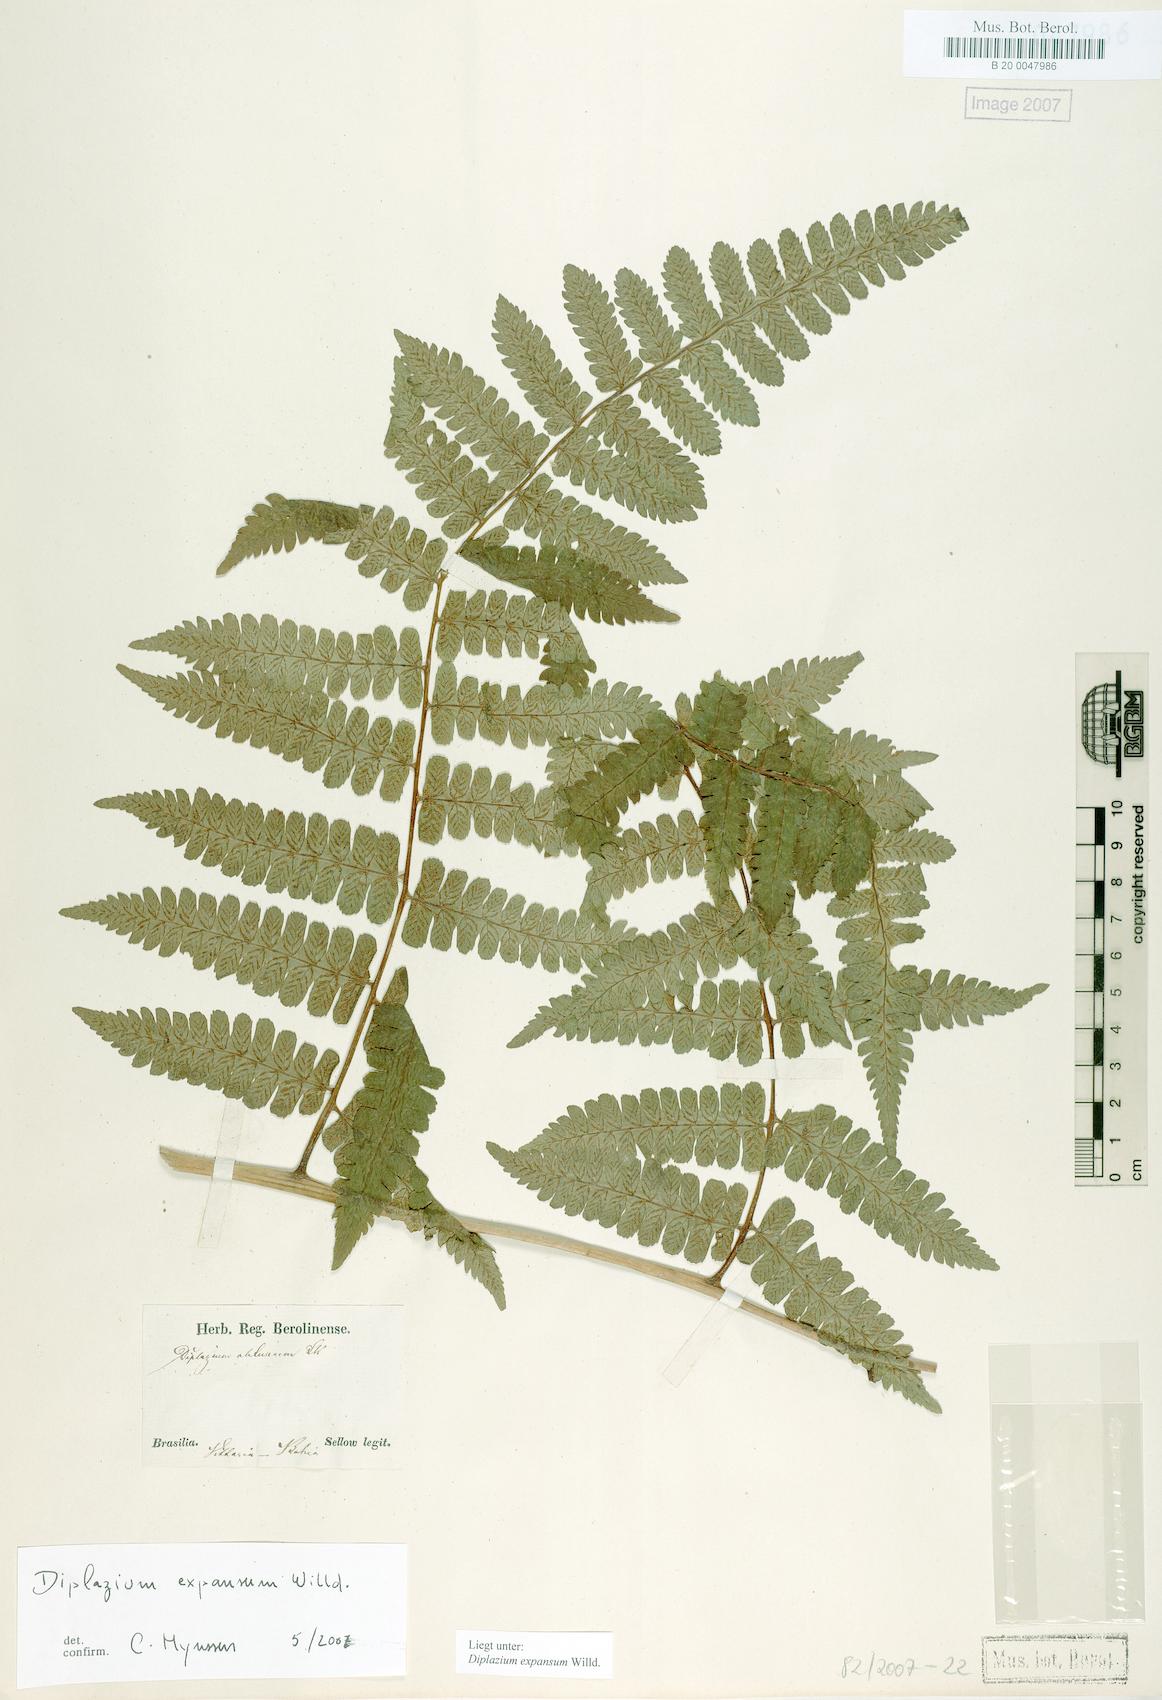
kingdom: Plantae
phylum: Tracheophyta
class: Polypodiopsida
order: Polypodiales
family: Athyriaceae
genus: Diplazium
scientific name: Diplazium expansum
